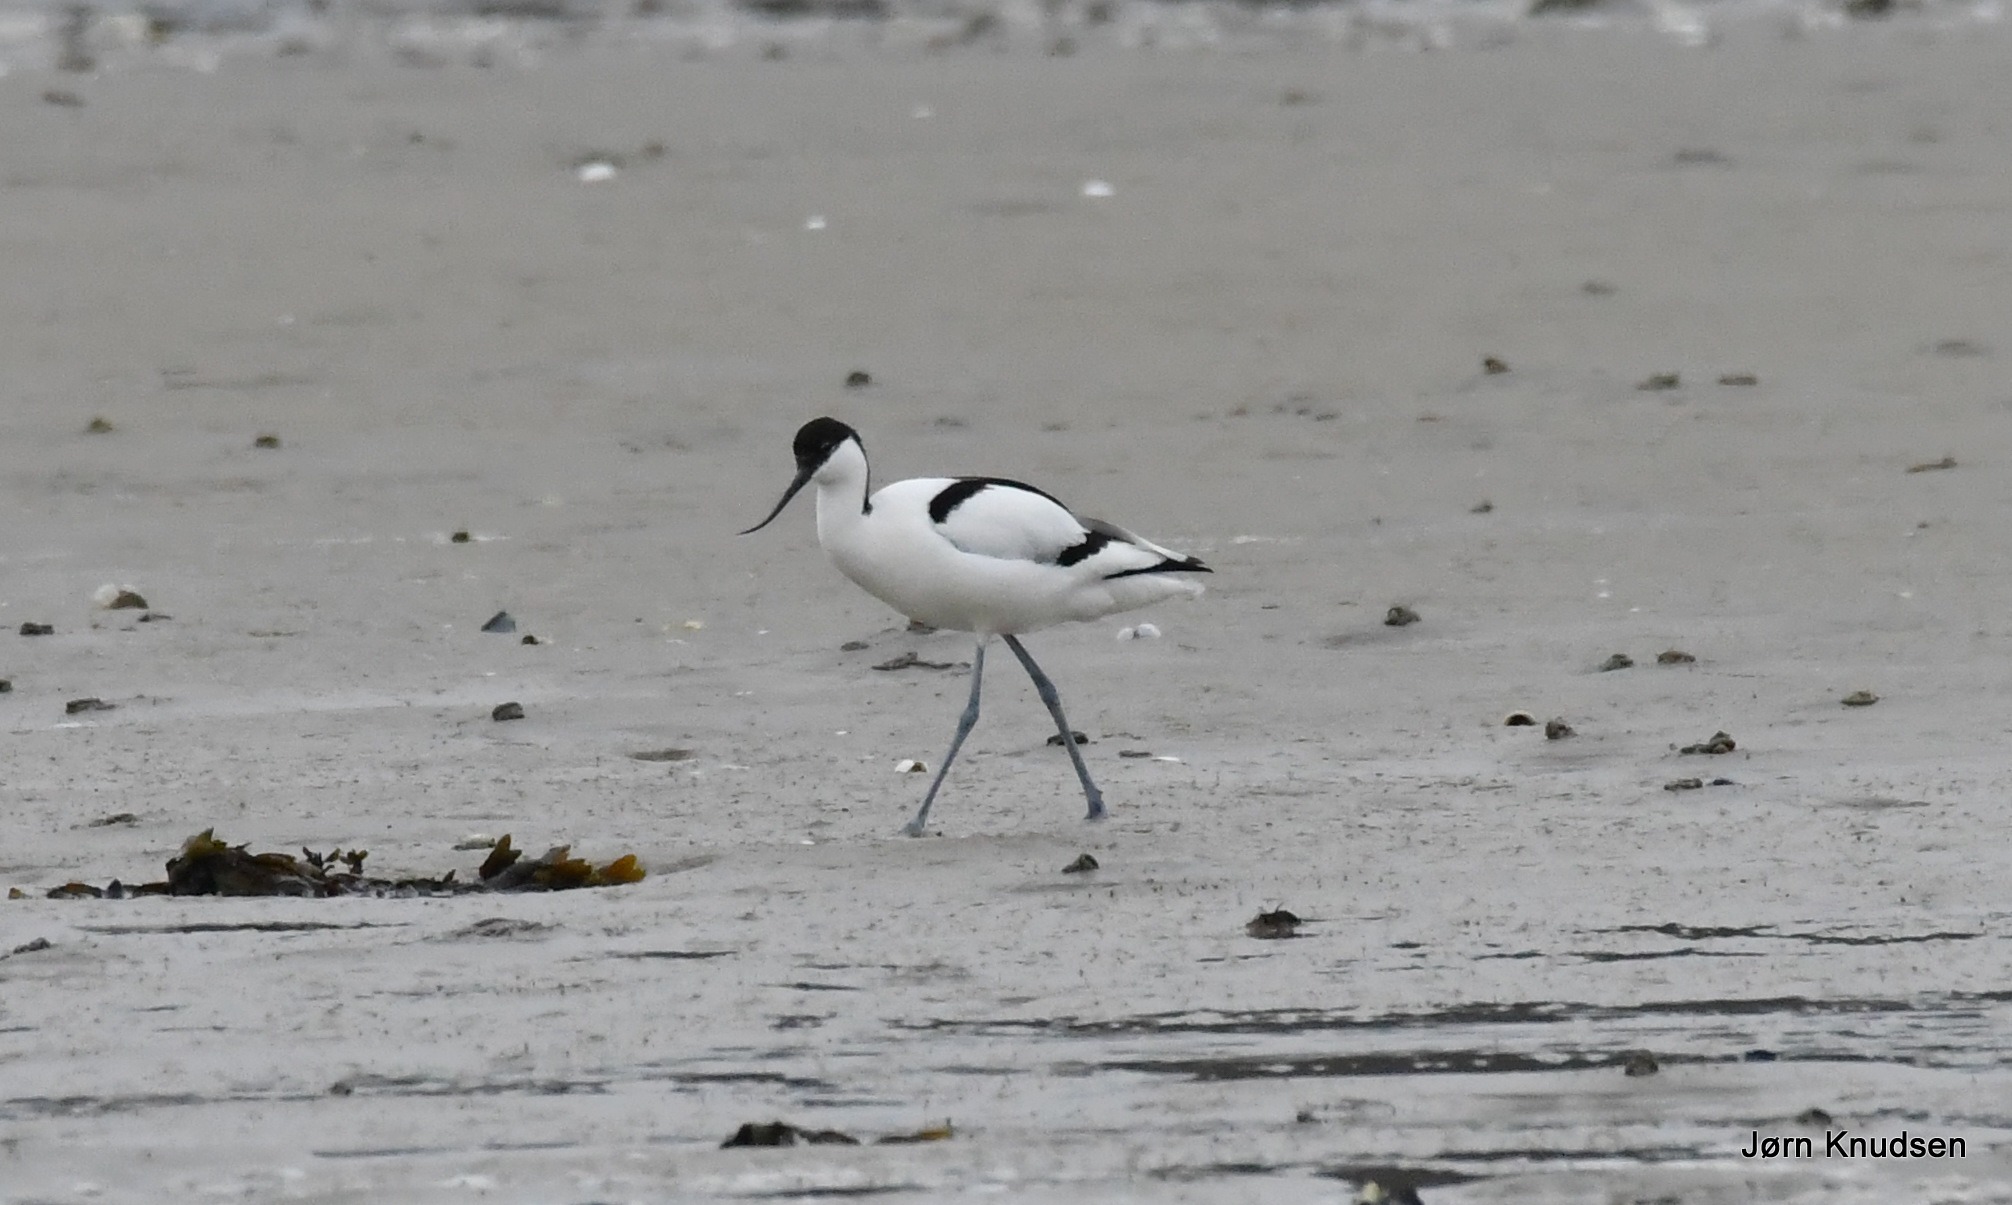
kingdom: Animalia
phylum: Chordata
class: Aves
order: Charadriiformes
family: Recurvirostridae
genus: Recurvirostra
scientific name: Recurvirostra avosetta
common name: Klyde
